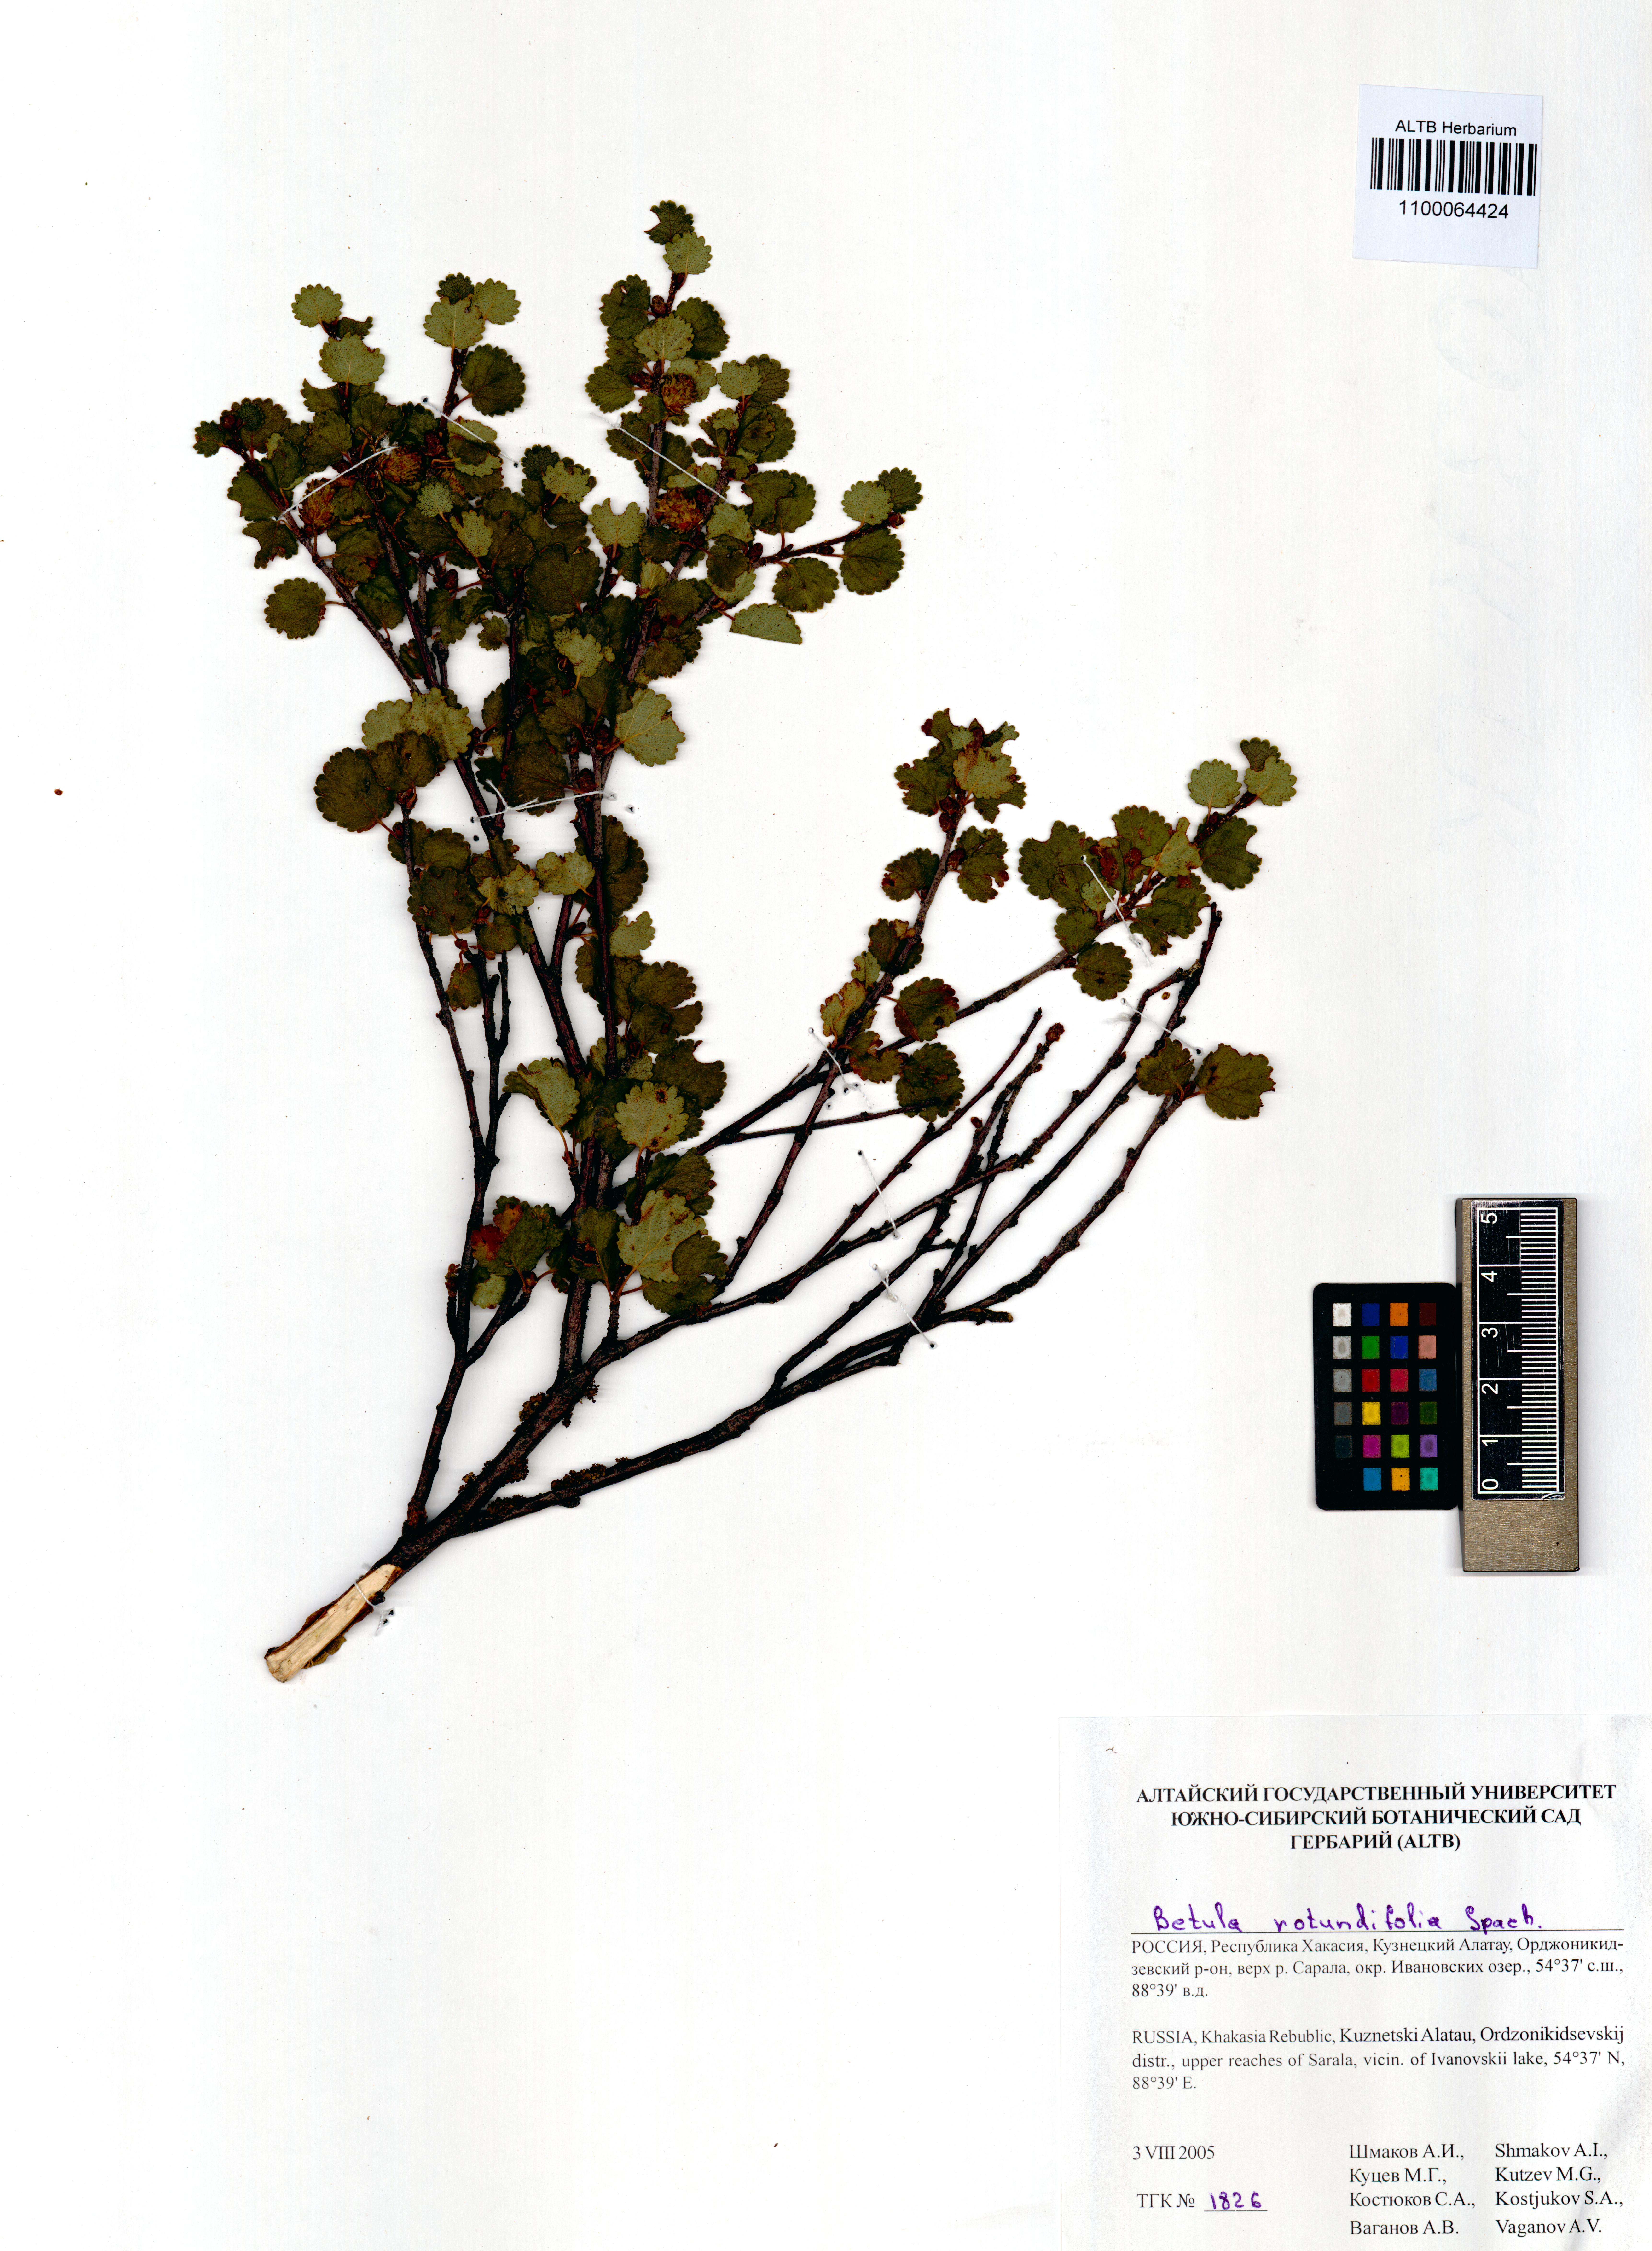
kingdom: Plantae
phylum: Tracheophyta
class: Magnoliopsida
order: Fagales
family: Betulaceae
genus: Betula
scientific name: Betula glandulosa
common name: Dwarf birch
